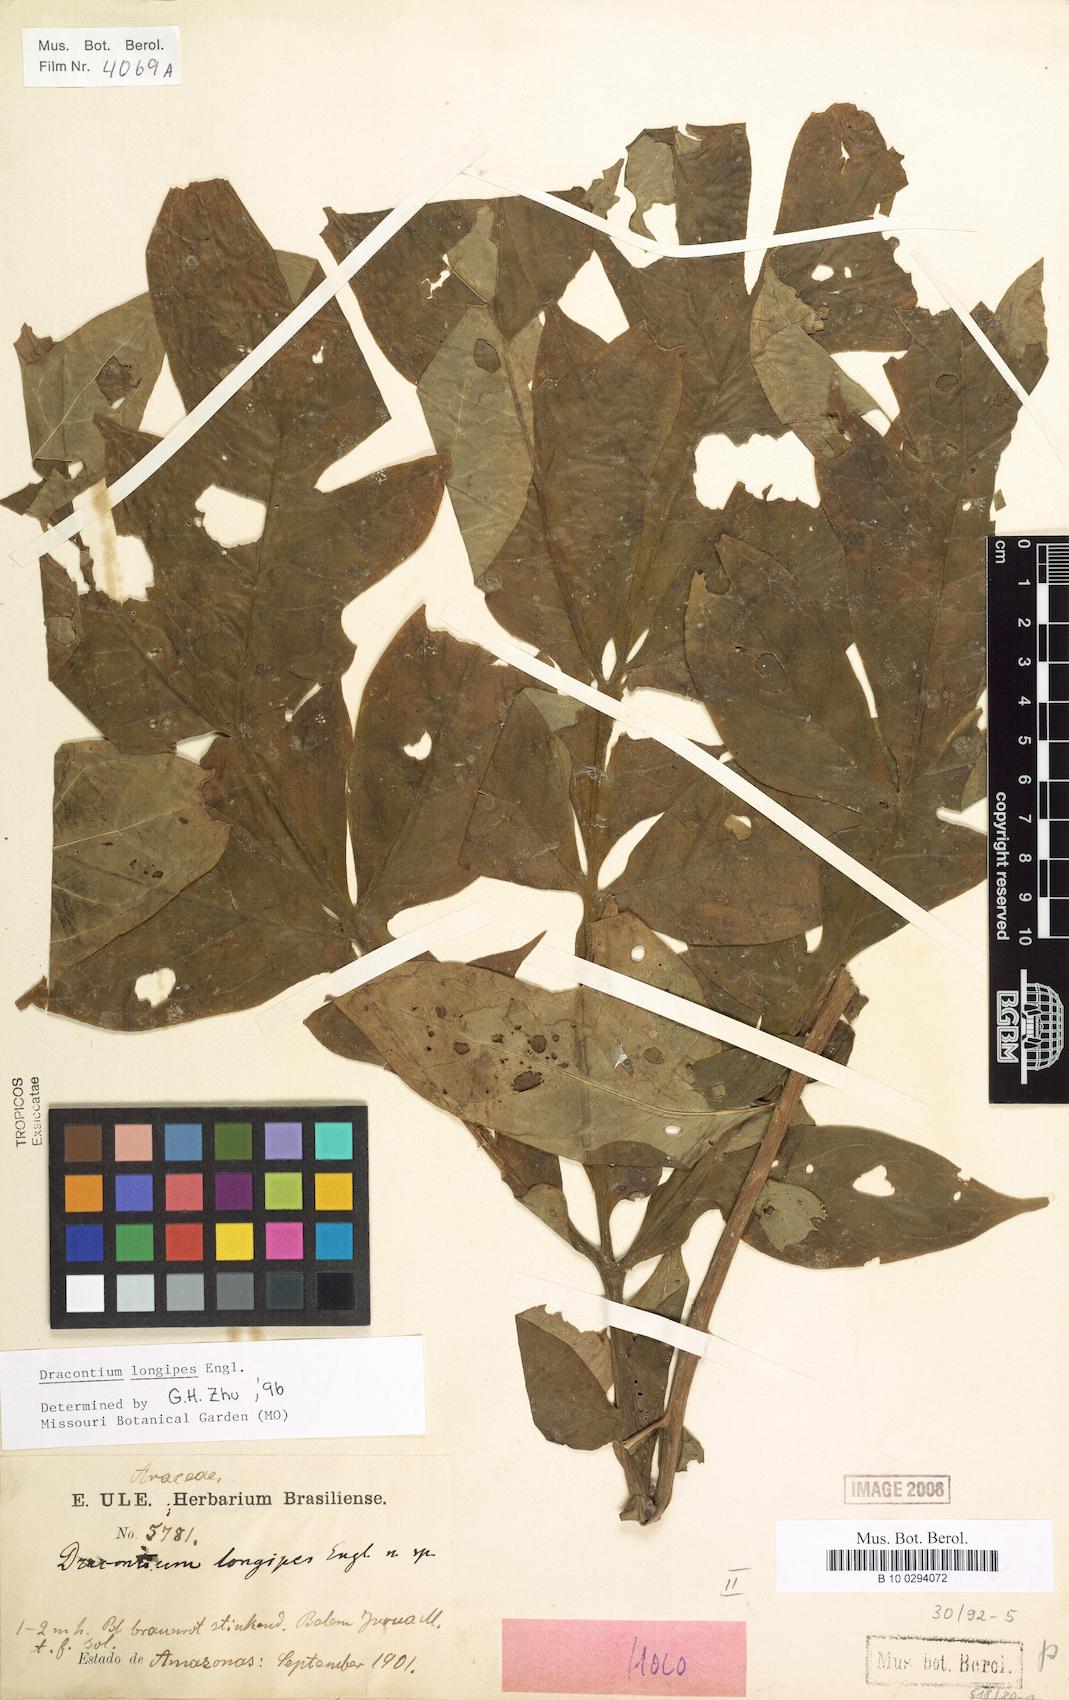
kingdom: Plantae
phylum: Tracheophyta
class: Liliopsida
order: Alismatales
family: Araceae
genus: Dracontium
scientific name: Dracontium longipes
